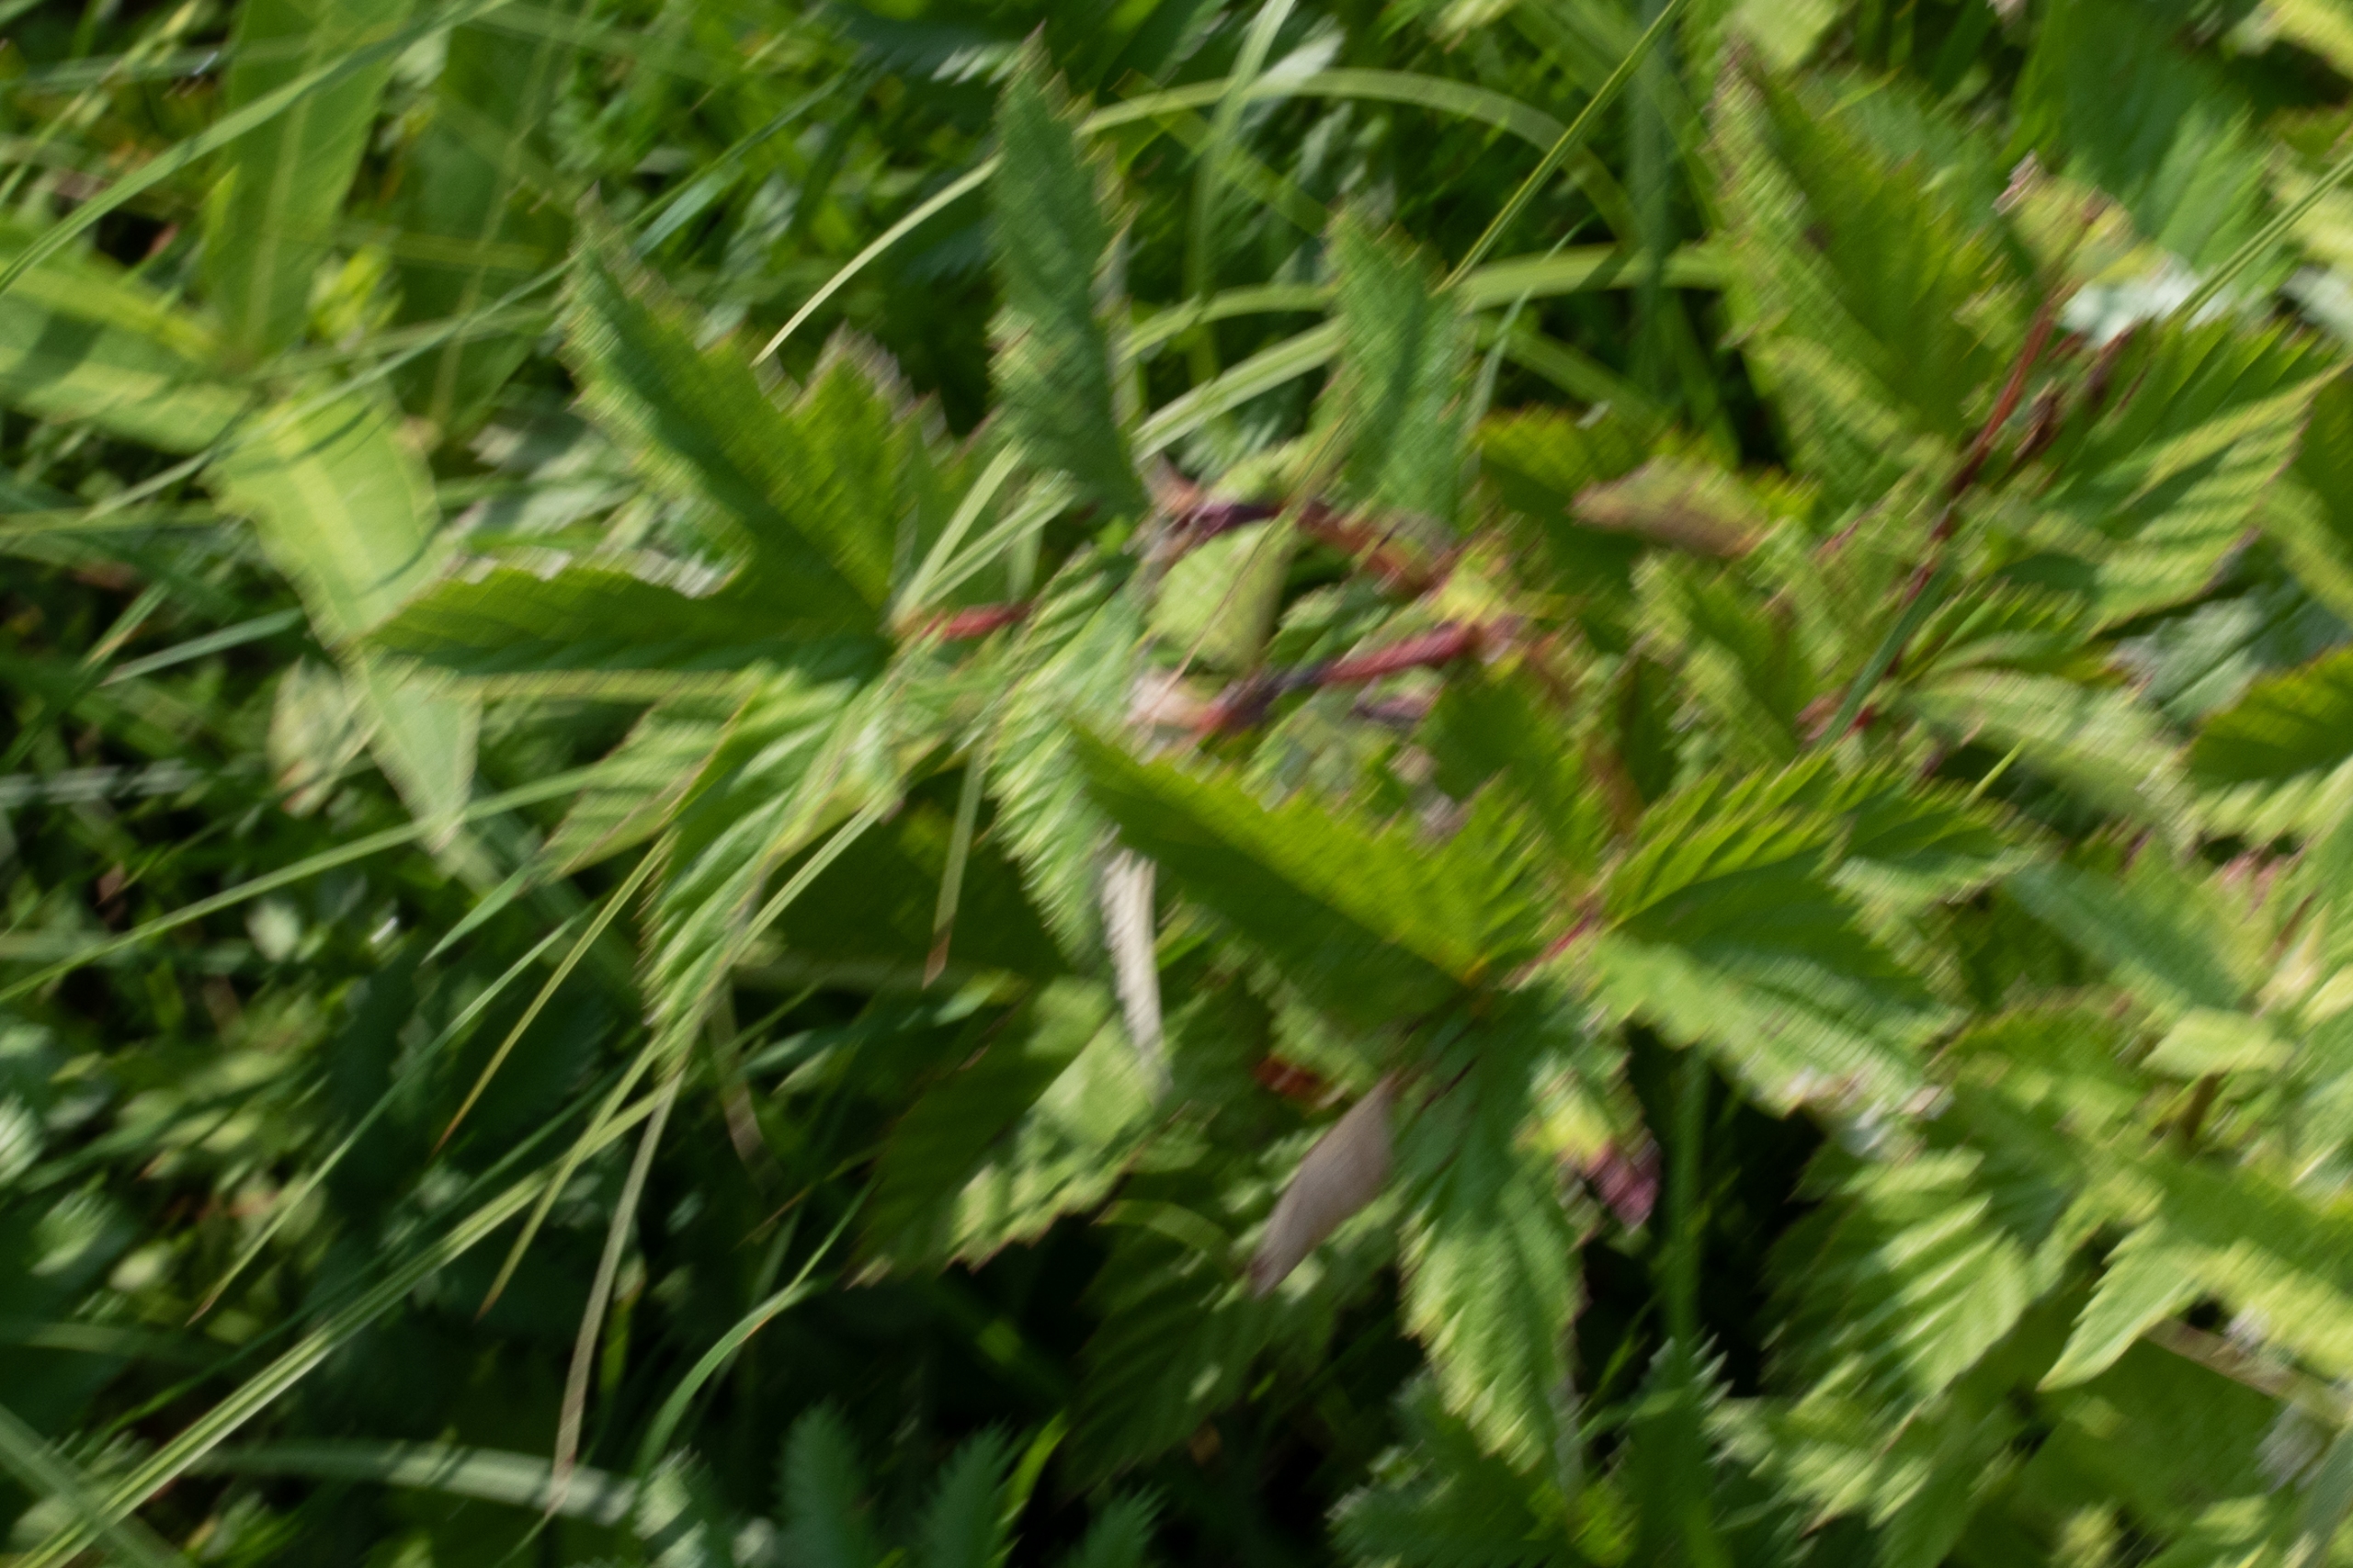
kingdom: Plantae
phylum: Tracheophyta
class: Magnoliopsida
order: Rosales
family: Rosaceae
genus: Filipendula
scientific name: Filipendula ulmaria
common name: Almindelig mjødurt
